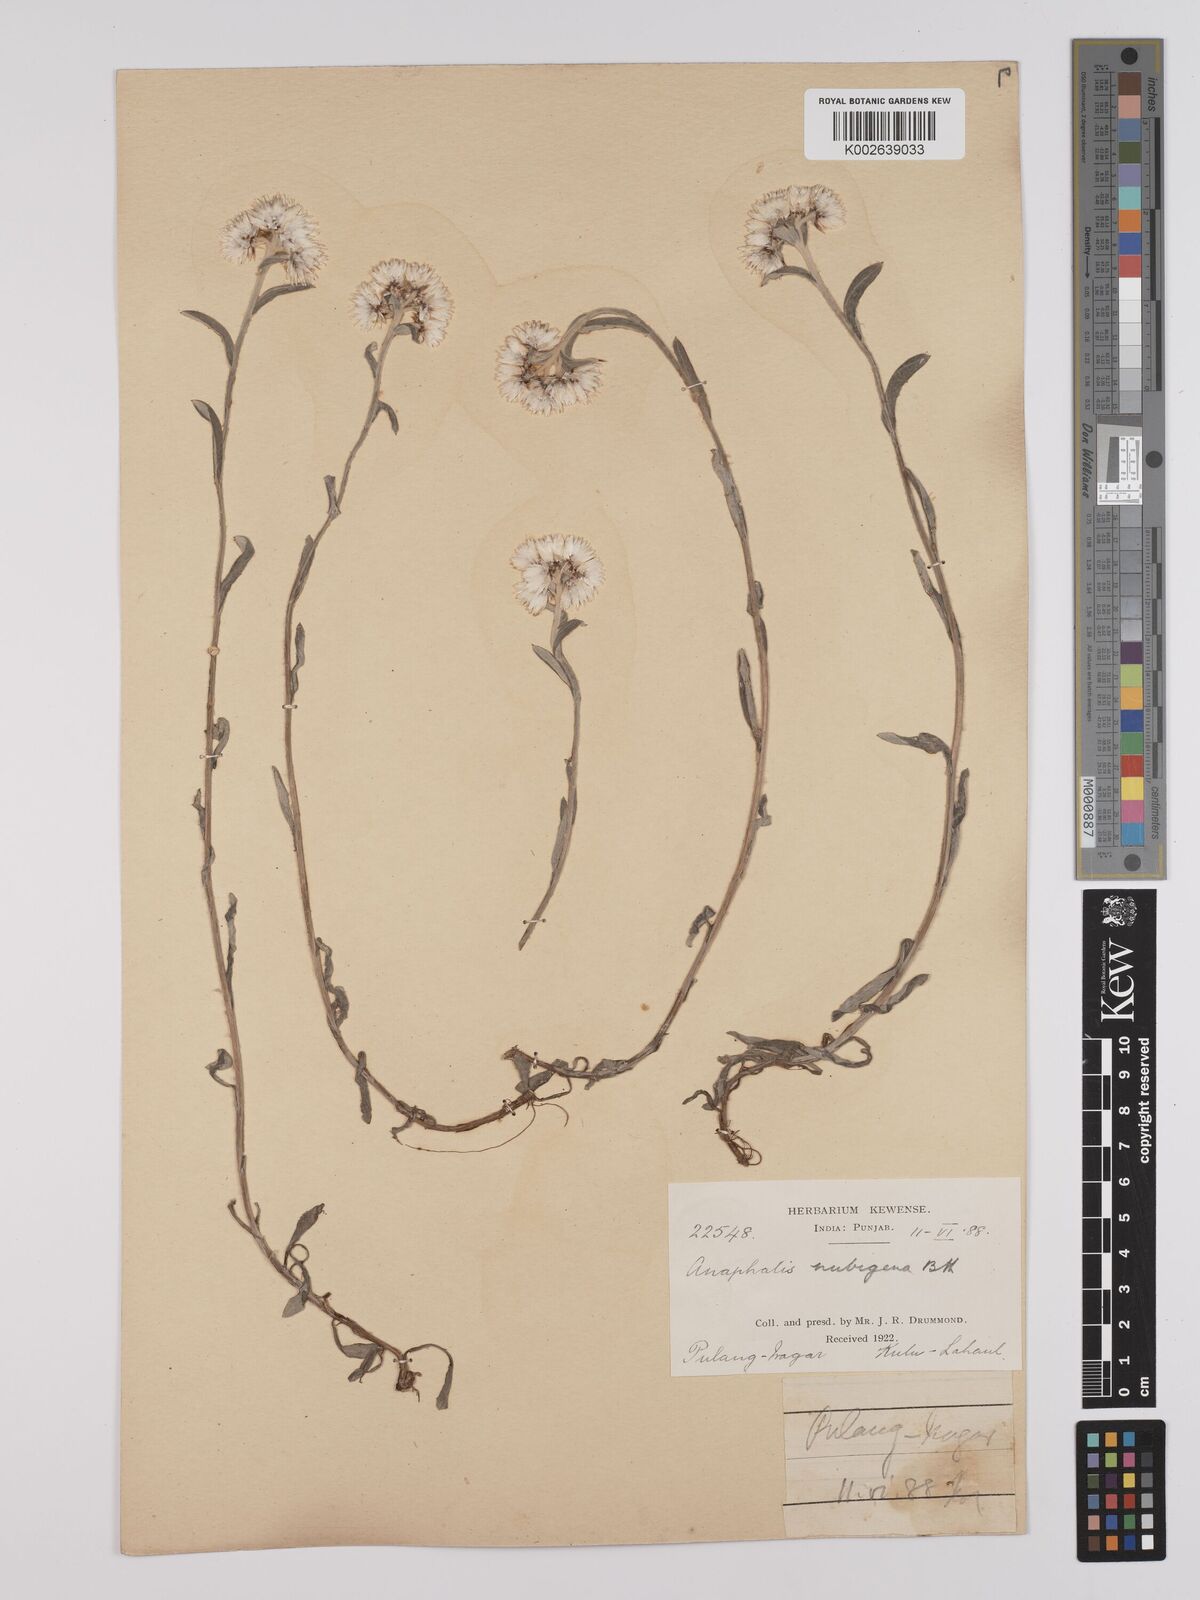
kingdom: Plantae
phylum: Tracheophyta
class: Magnoliopsida
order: Asterales
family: Asteraceae
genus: Anaphalis
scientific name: Anaphalis nepalensis
